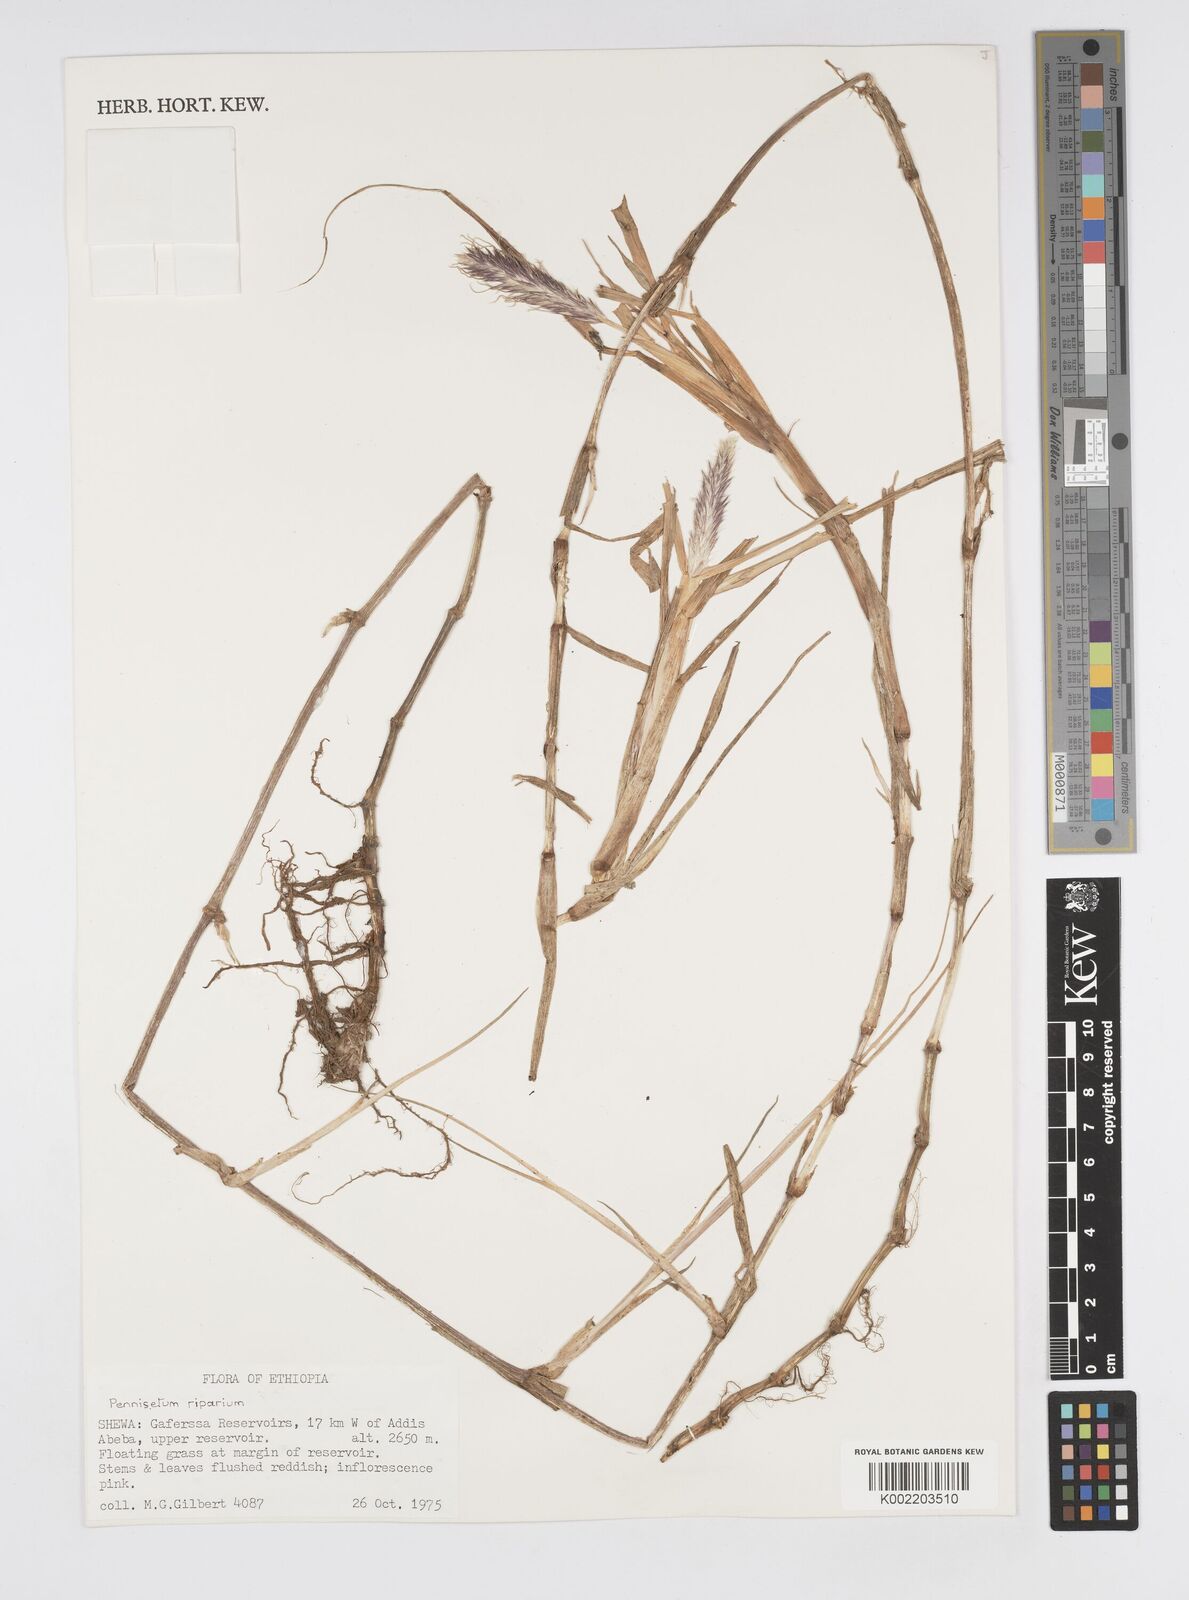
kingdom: Plantae
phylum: Tracheophyta
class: Liliopsida
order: Poales
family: Poaceae
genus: Cenchrus
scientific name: Cenchrus riparius
